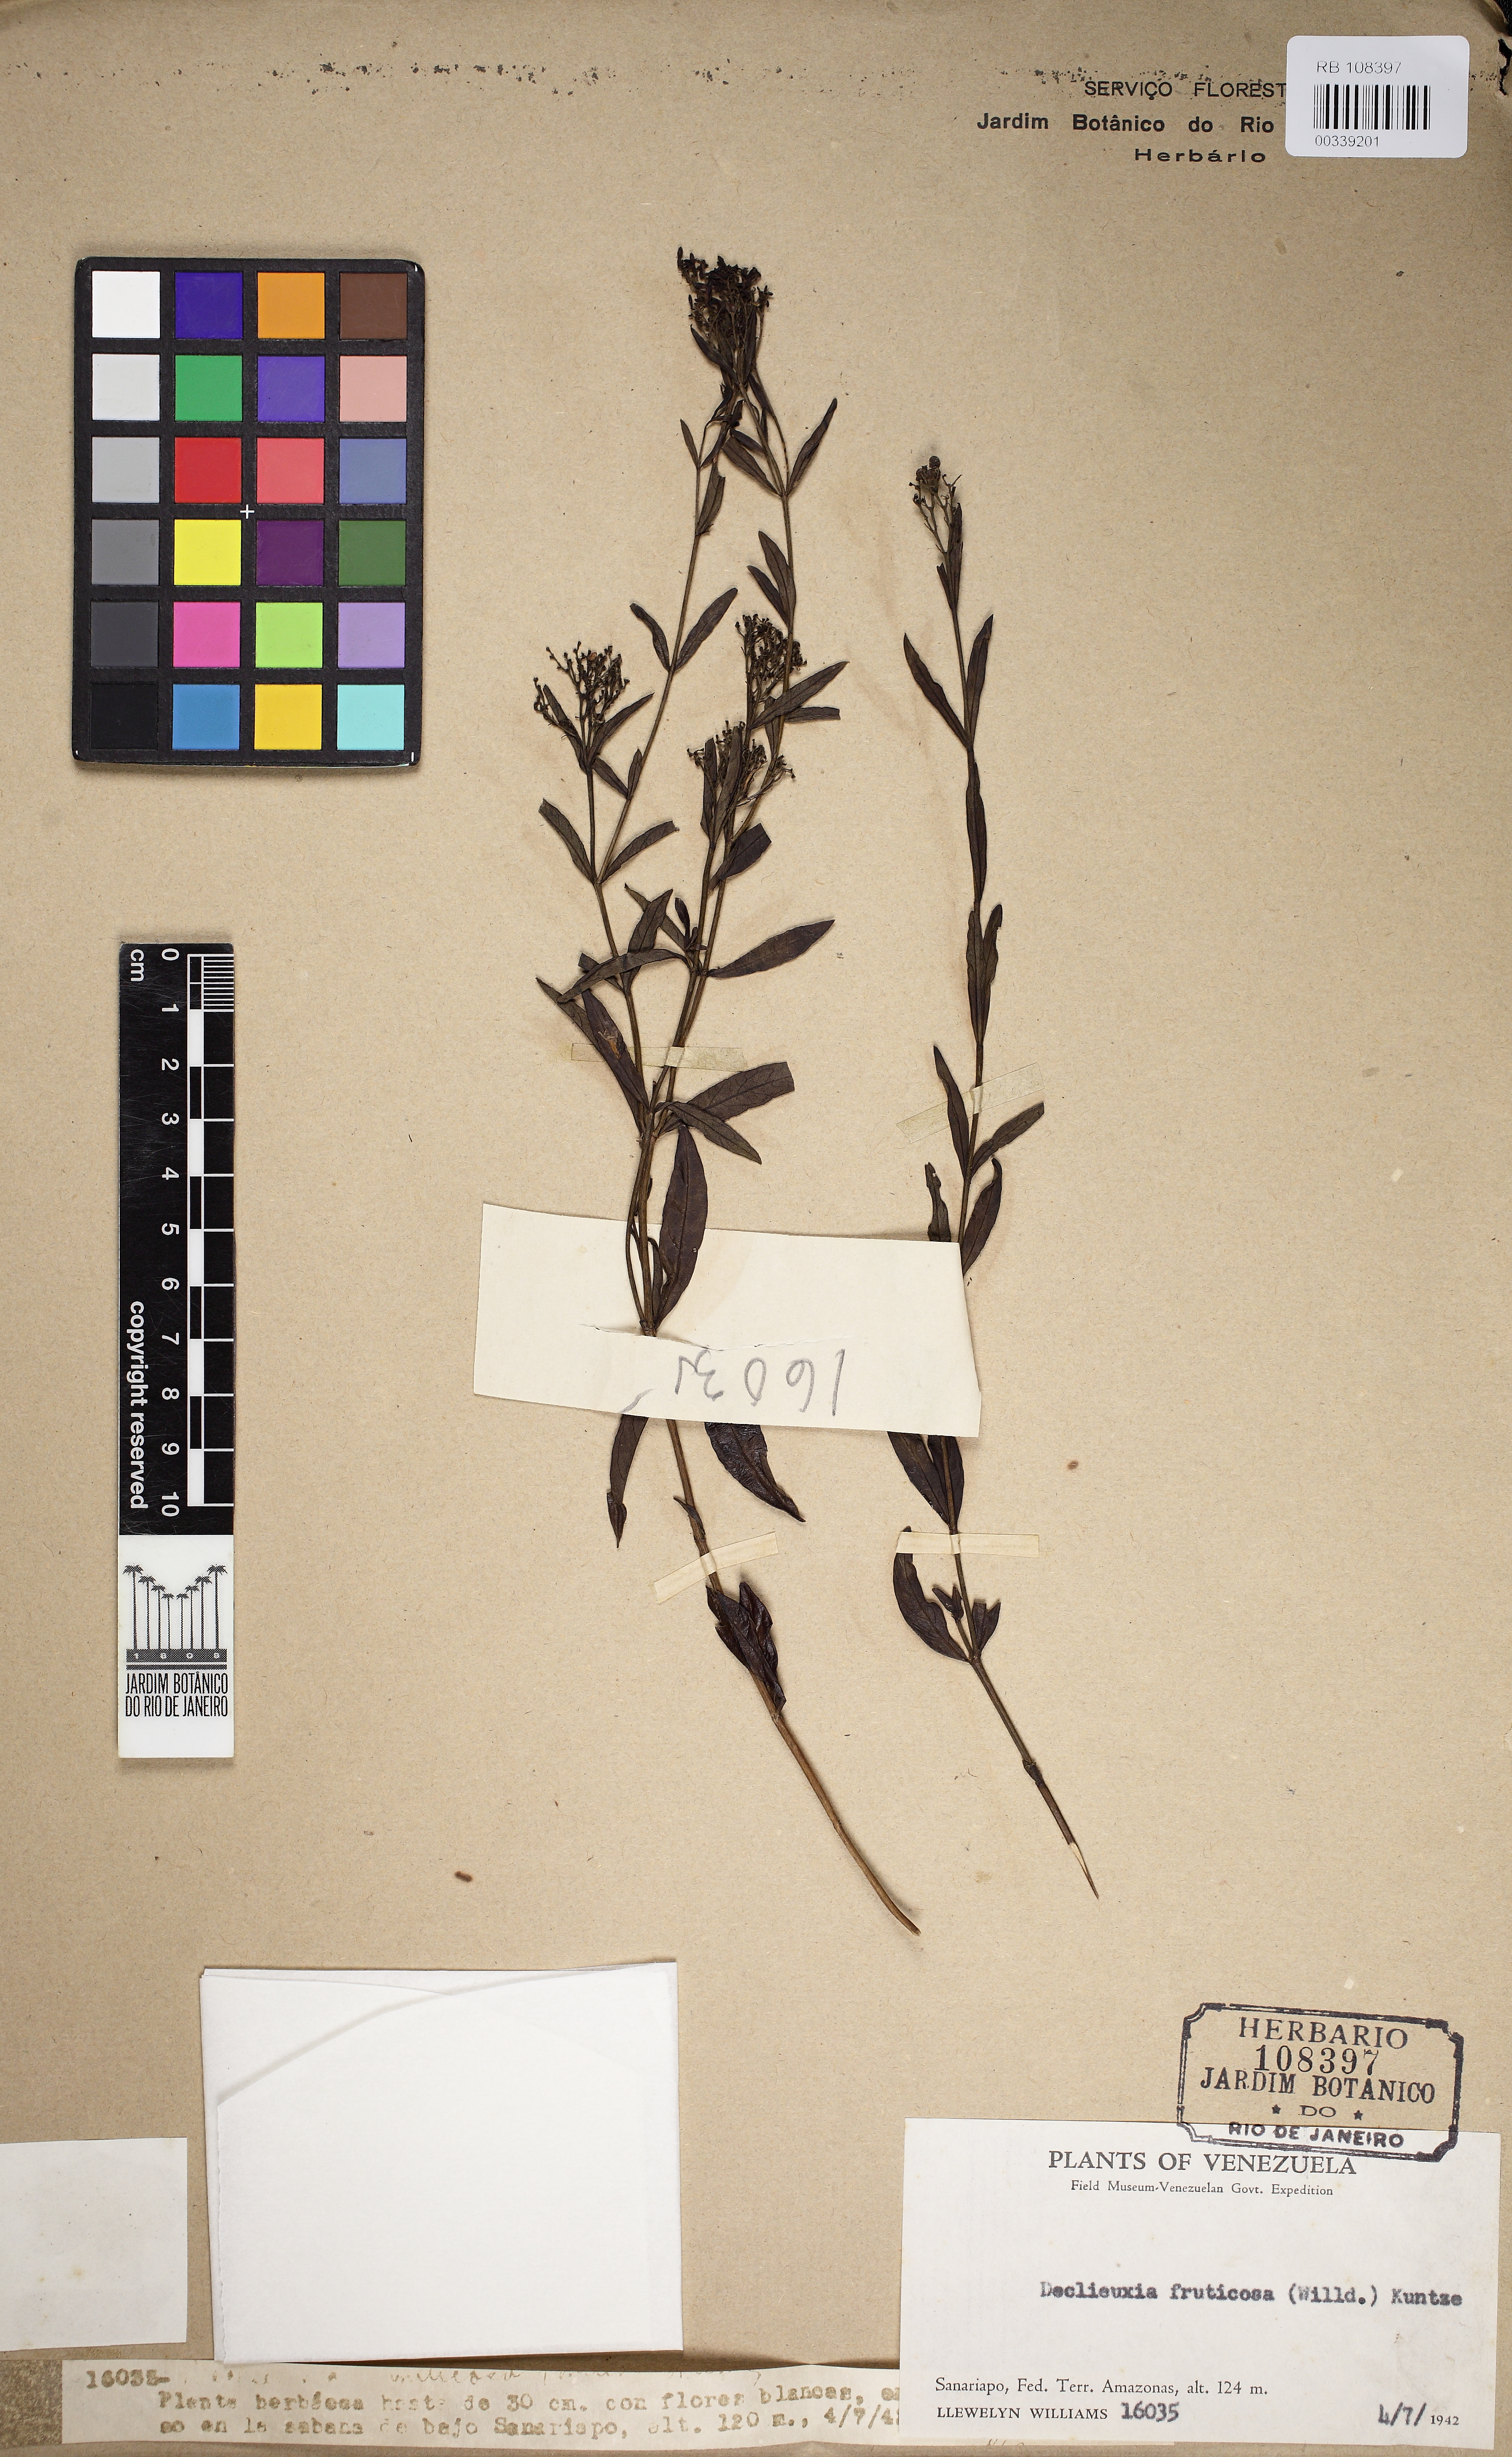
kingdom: Plantae
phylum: Tracheophyta
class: Magnoliopsida
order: Gentianales
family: Rubiaceae
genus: Declieuxia
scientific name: Declieuxia fruticosa
